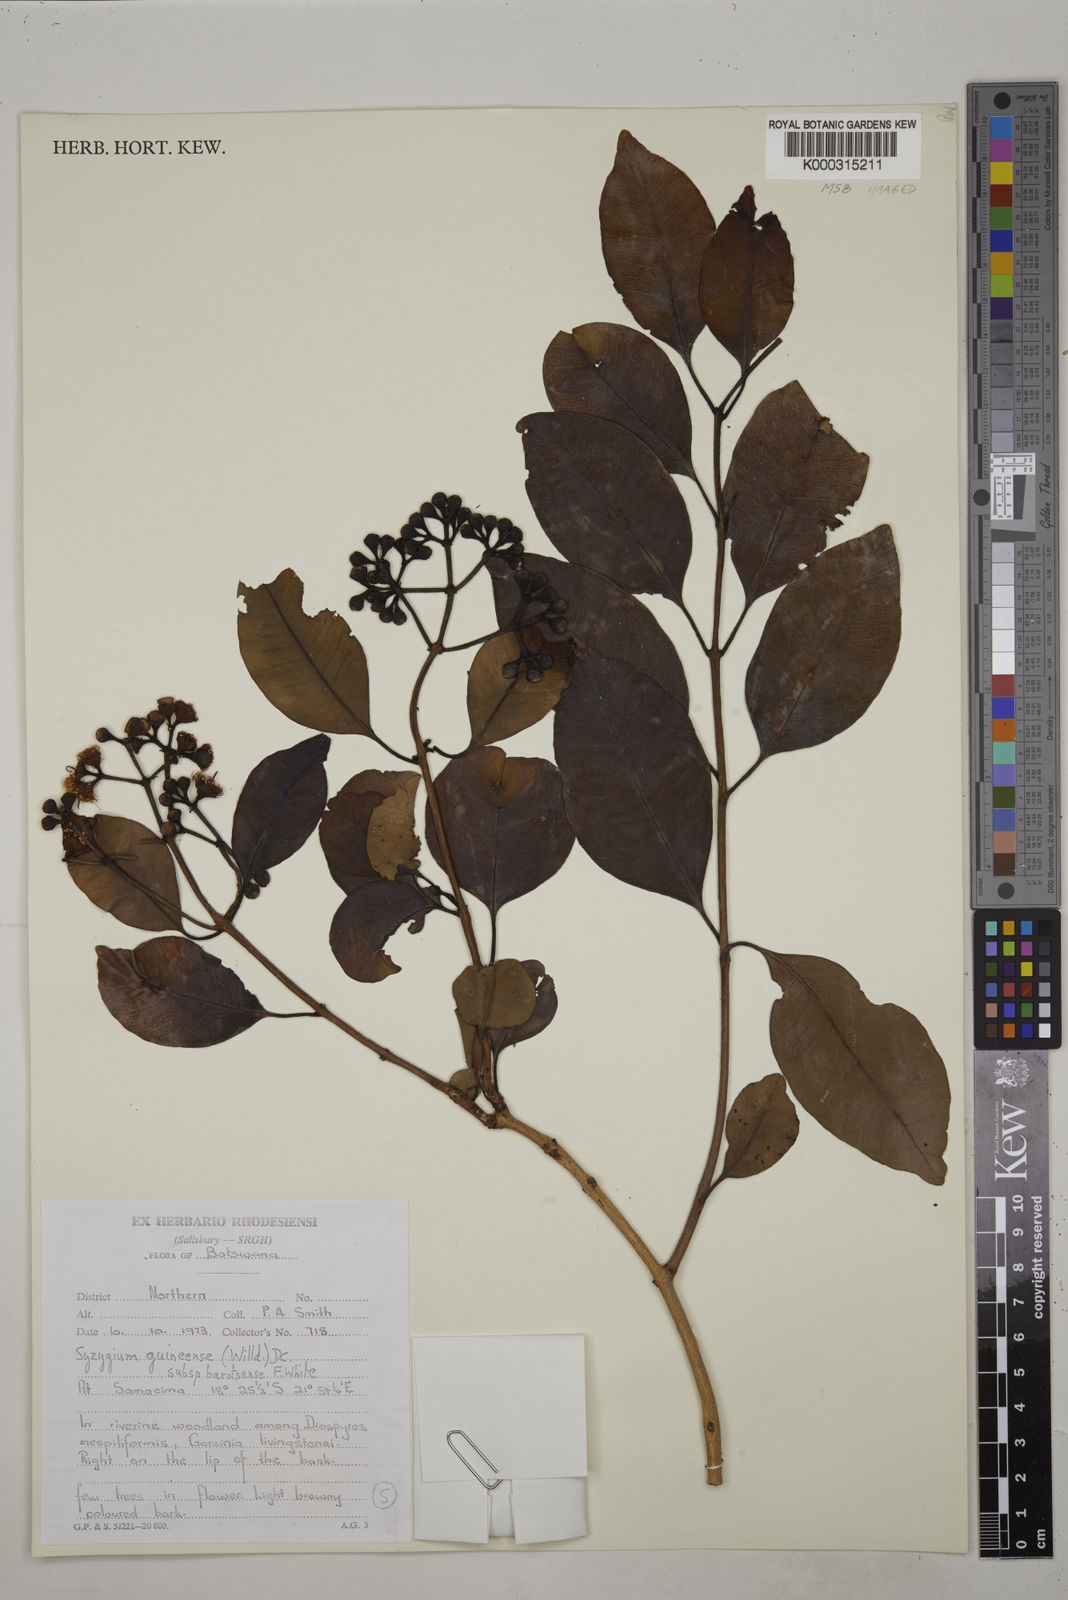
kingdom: Plantae
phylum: Tracheophyta
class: Magnoliopsida
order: Myrtales
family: Myrtaceae
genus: Syzygium
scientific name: Syzygium guineense
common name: Water-pear
